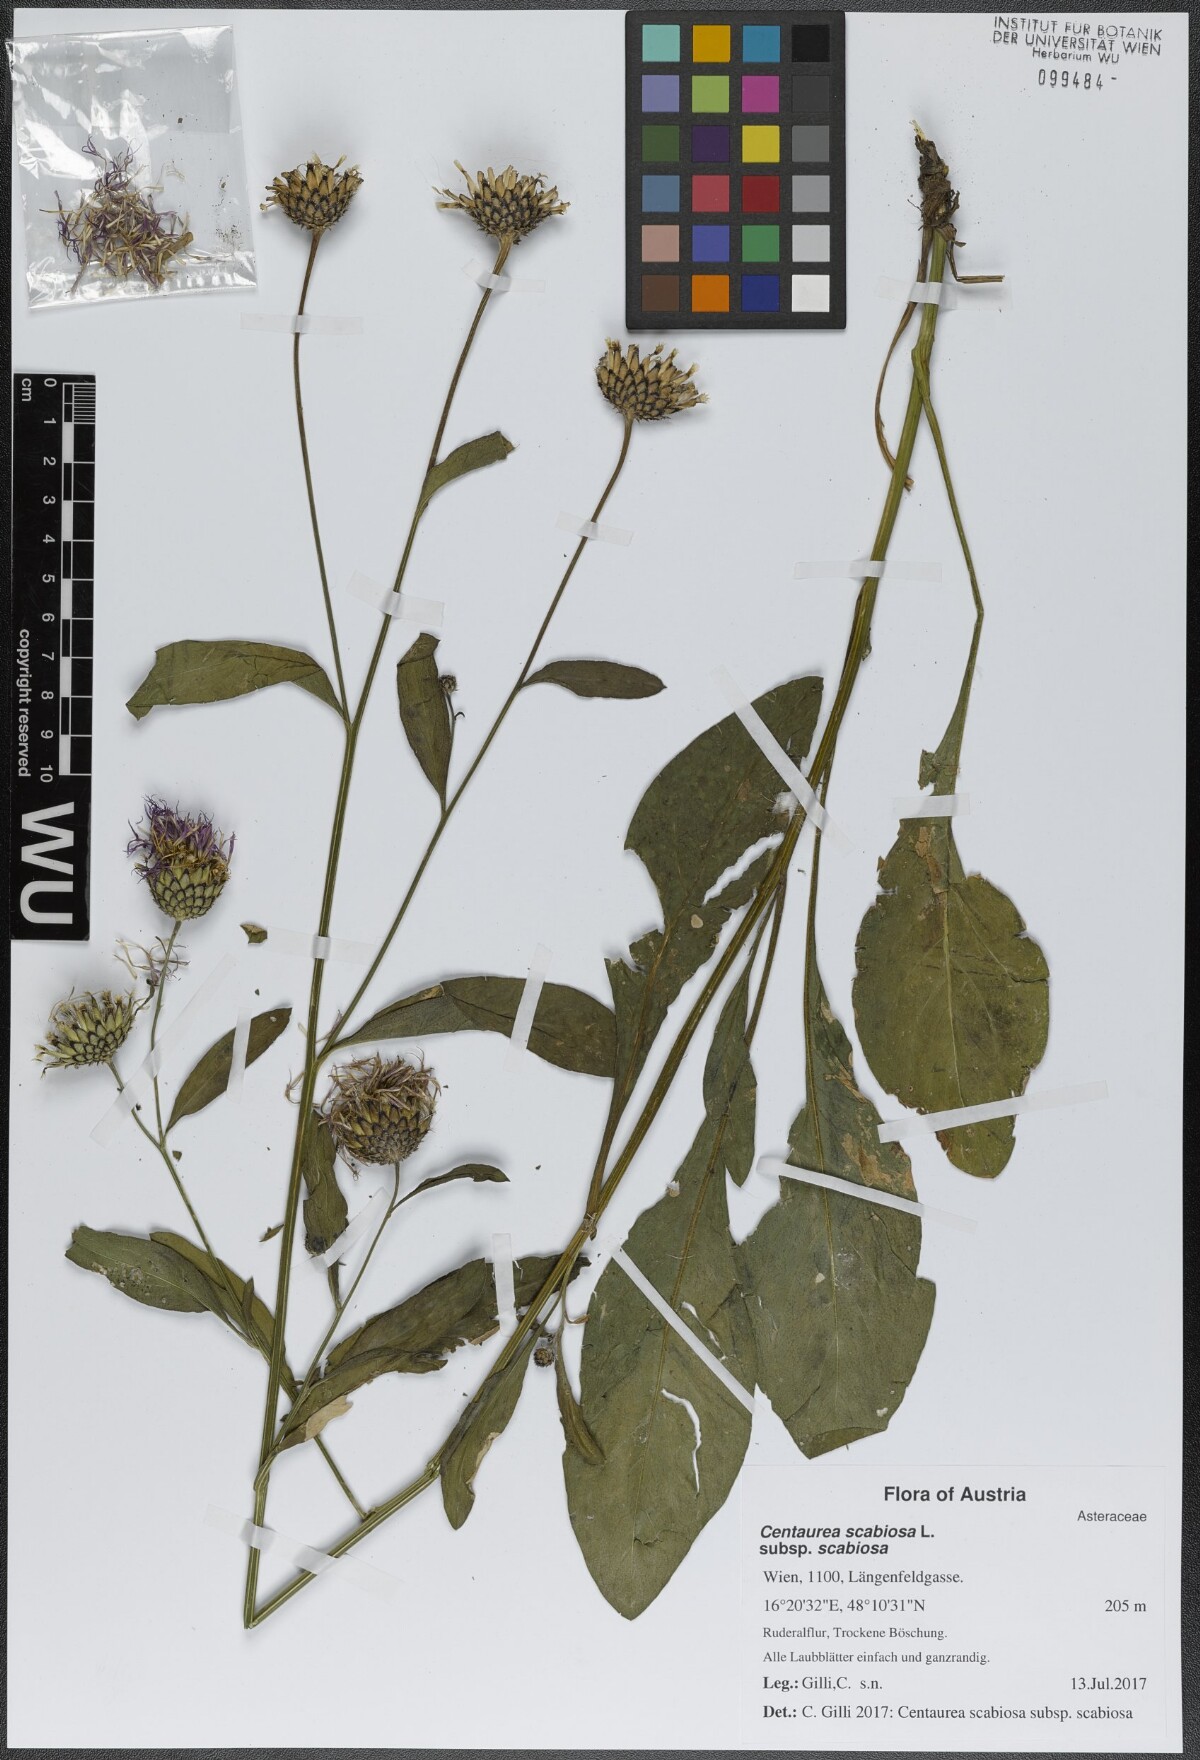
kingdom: Plantae
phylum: Tracheophyta
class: Magnoliopsida
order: Asterales
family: Asteraceae
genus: Centaurea
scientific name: Centaurea scabiosa
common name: Greater knapweed
